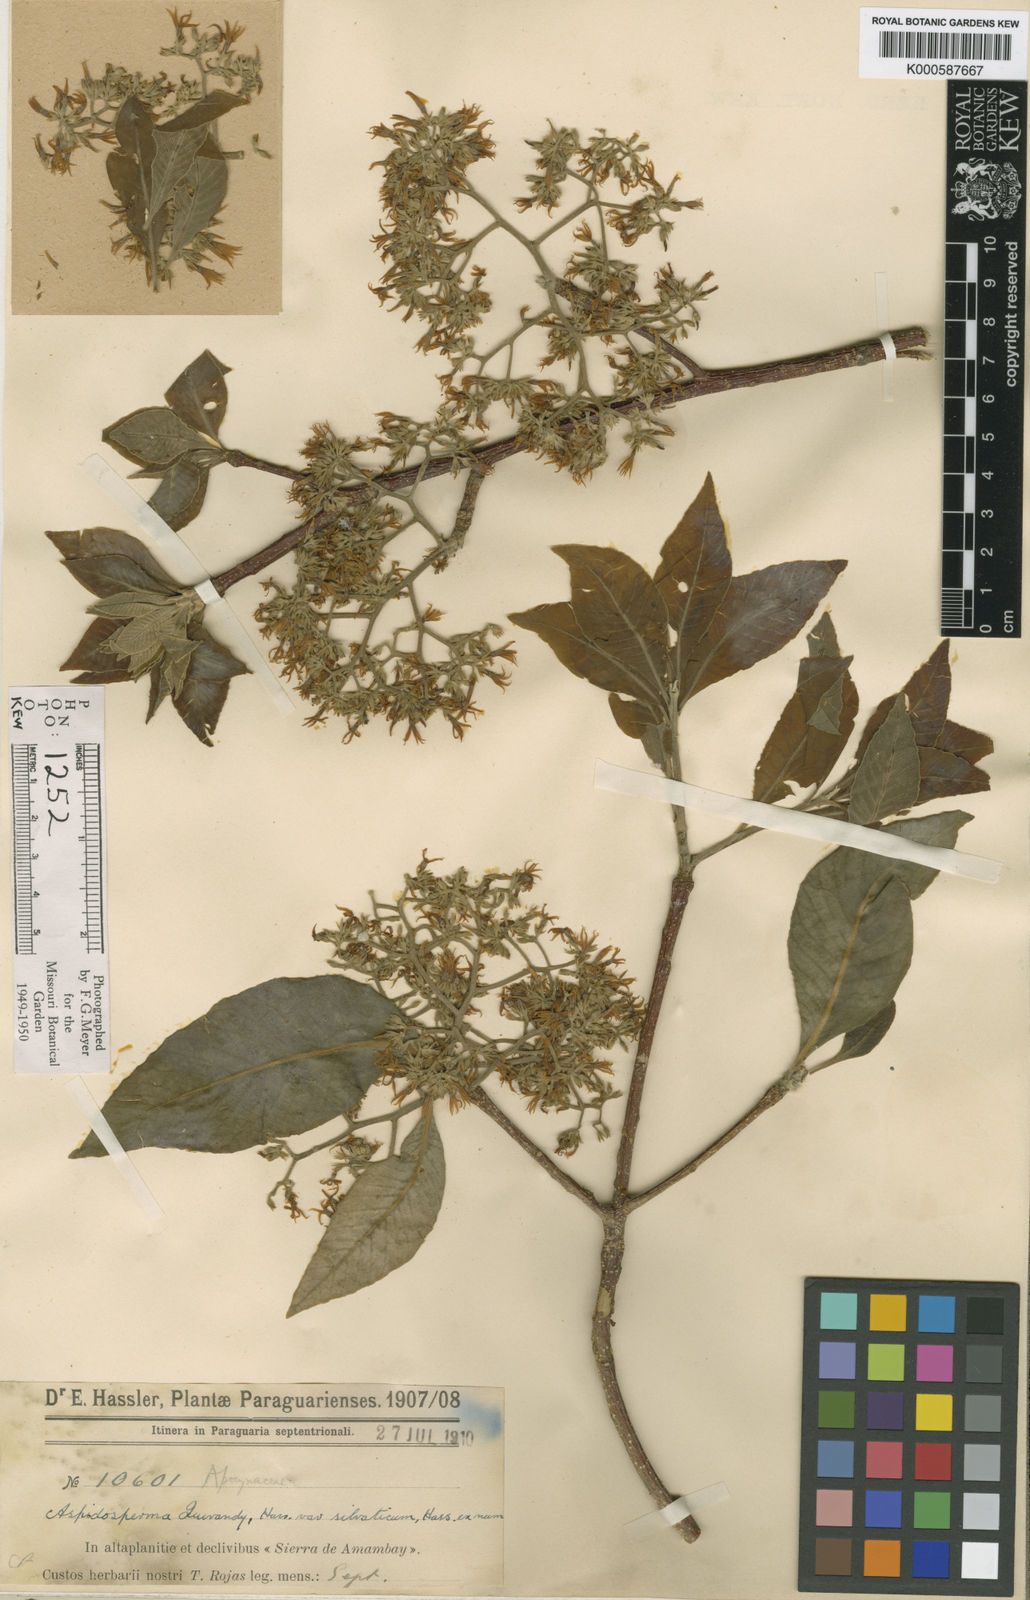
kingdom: Plantae
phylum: Tracheophyta
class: Magnoliopsida
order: Gentianales
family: Apocynaceae
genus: Aspidosperma
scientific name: Aspidosperma
